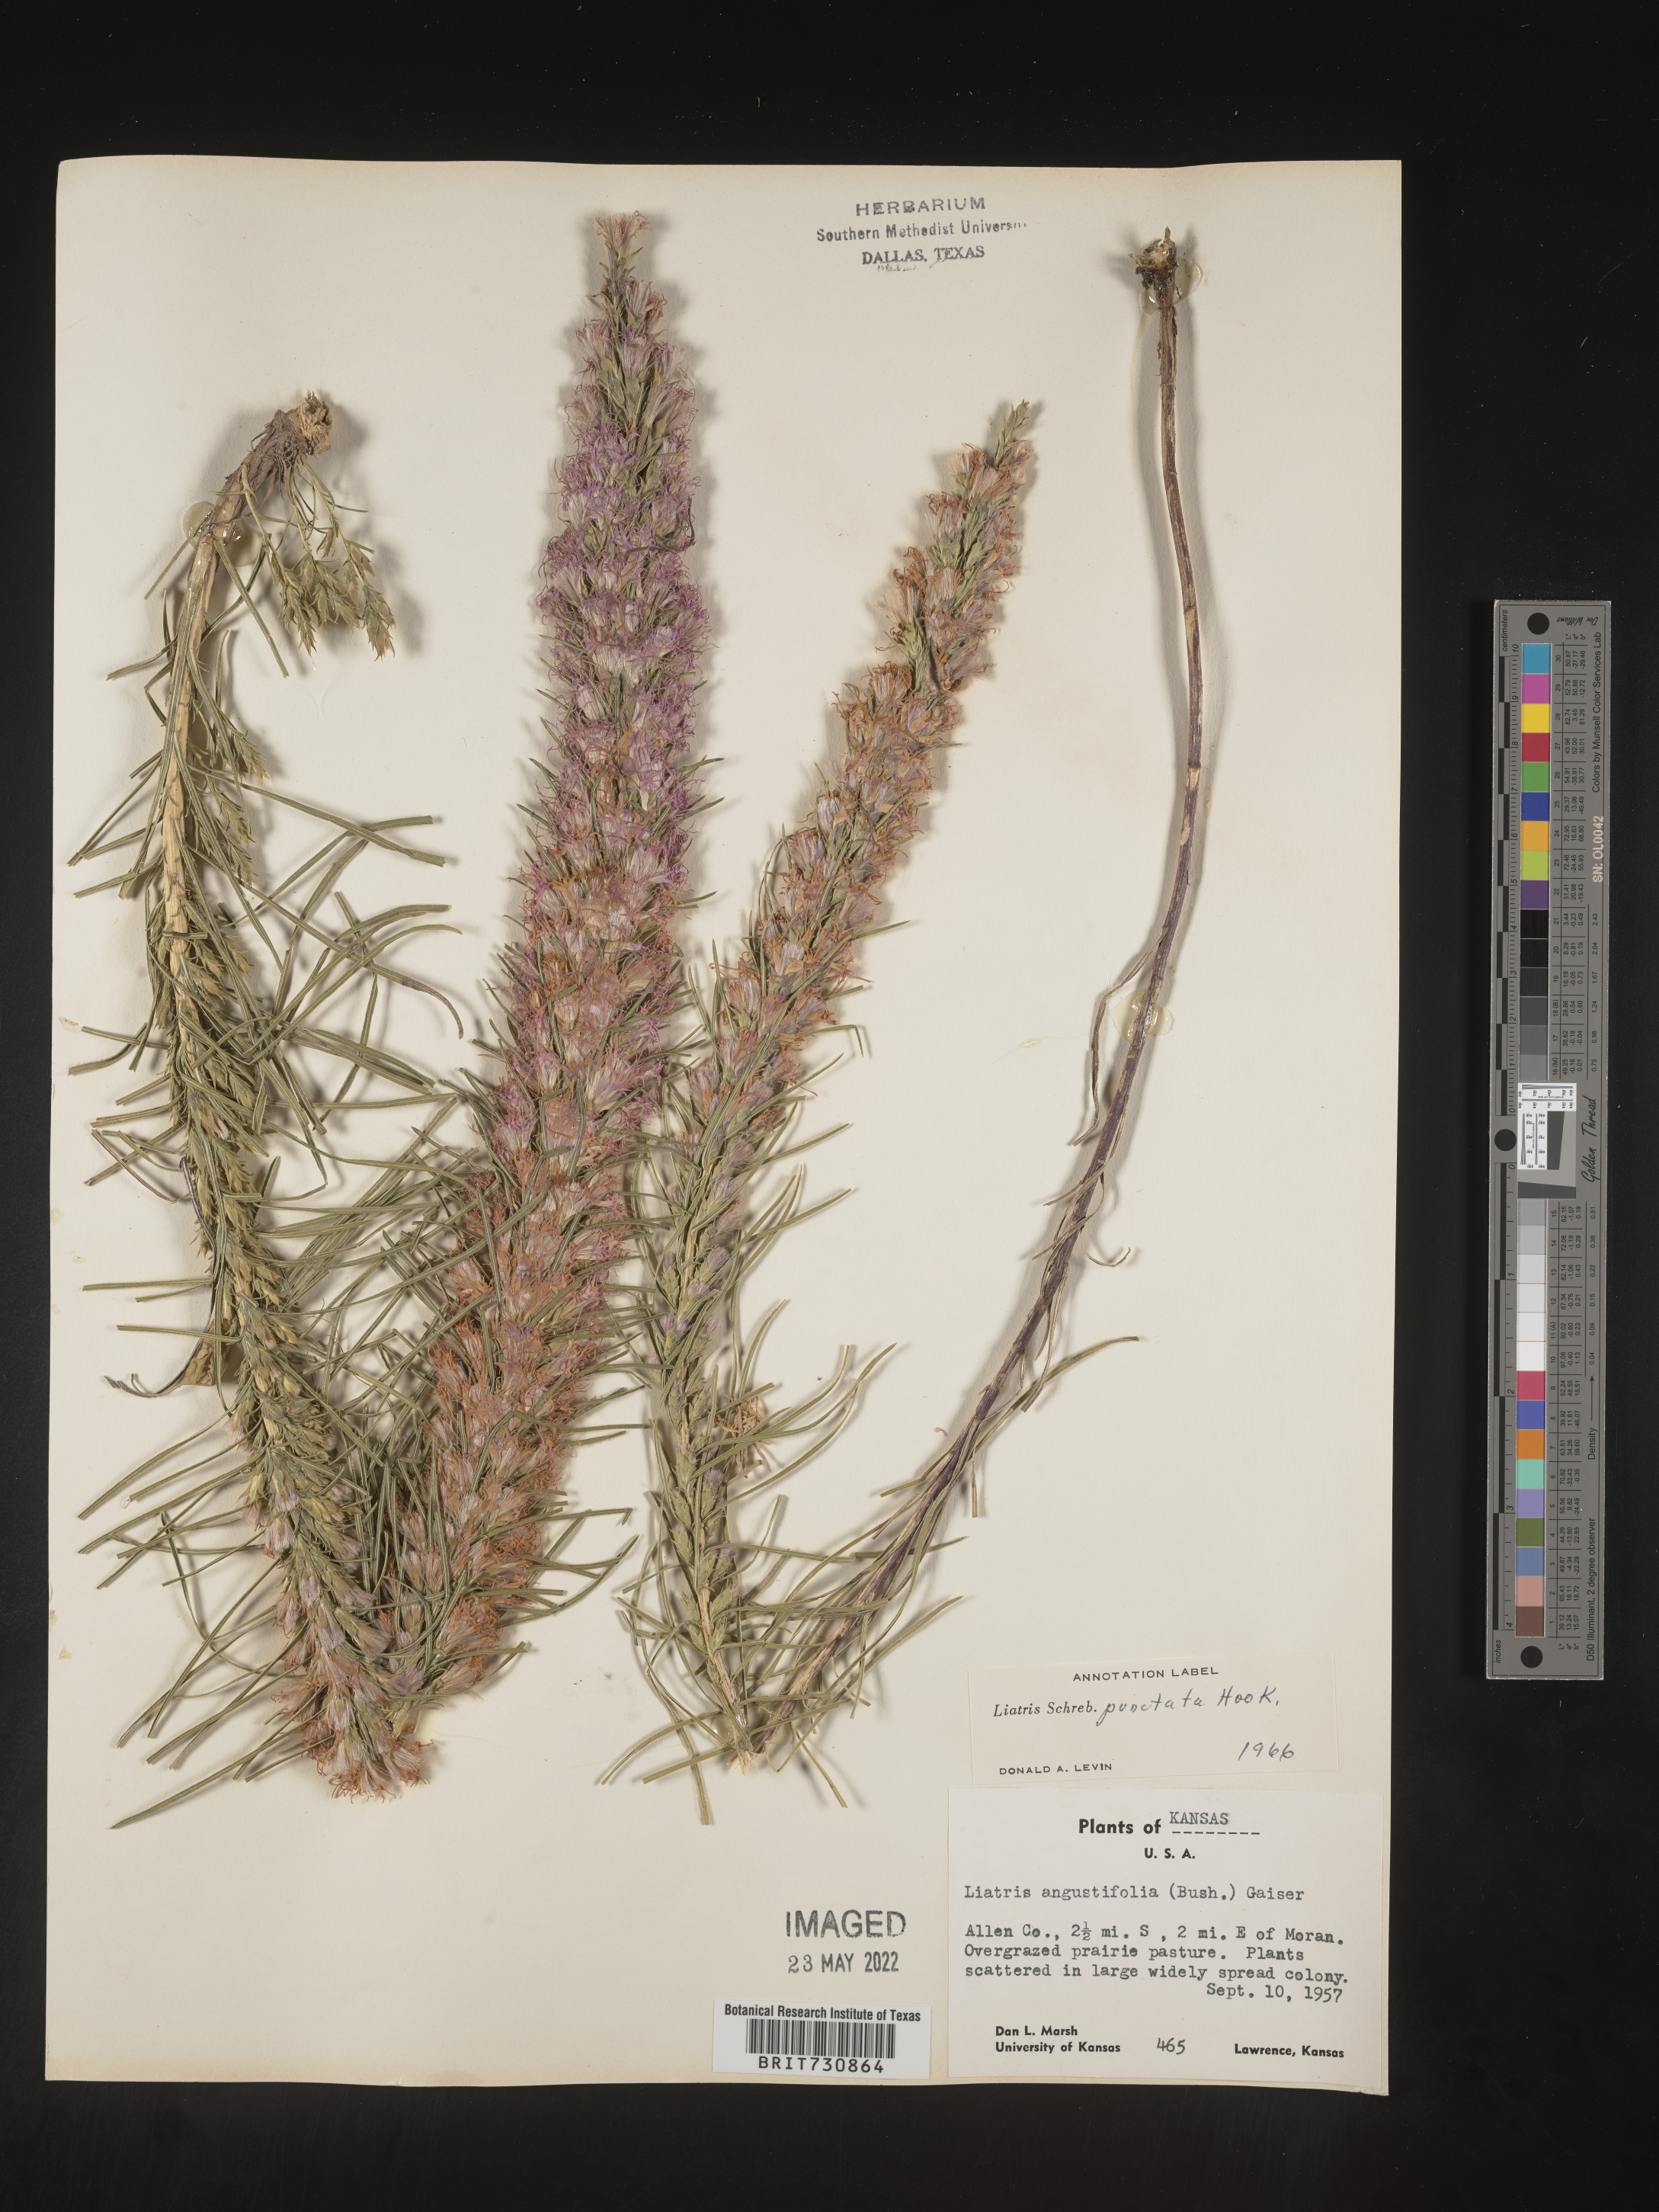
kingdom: Plantae
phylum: Tracheophyta
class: Magnoliopsida
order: Asterales
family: Asteraceae
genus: Liatris
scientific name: Liatris punctata
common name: Dotted gayfeather
